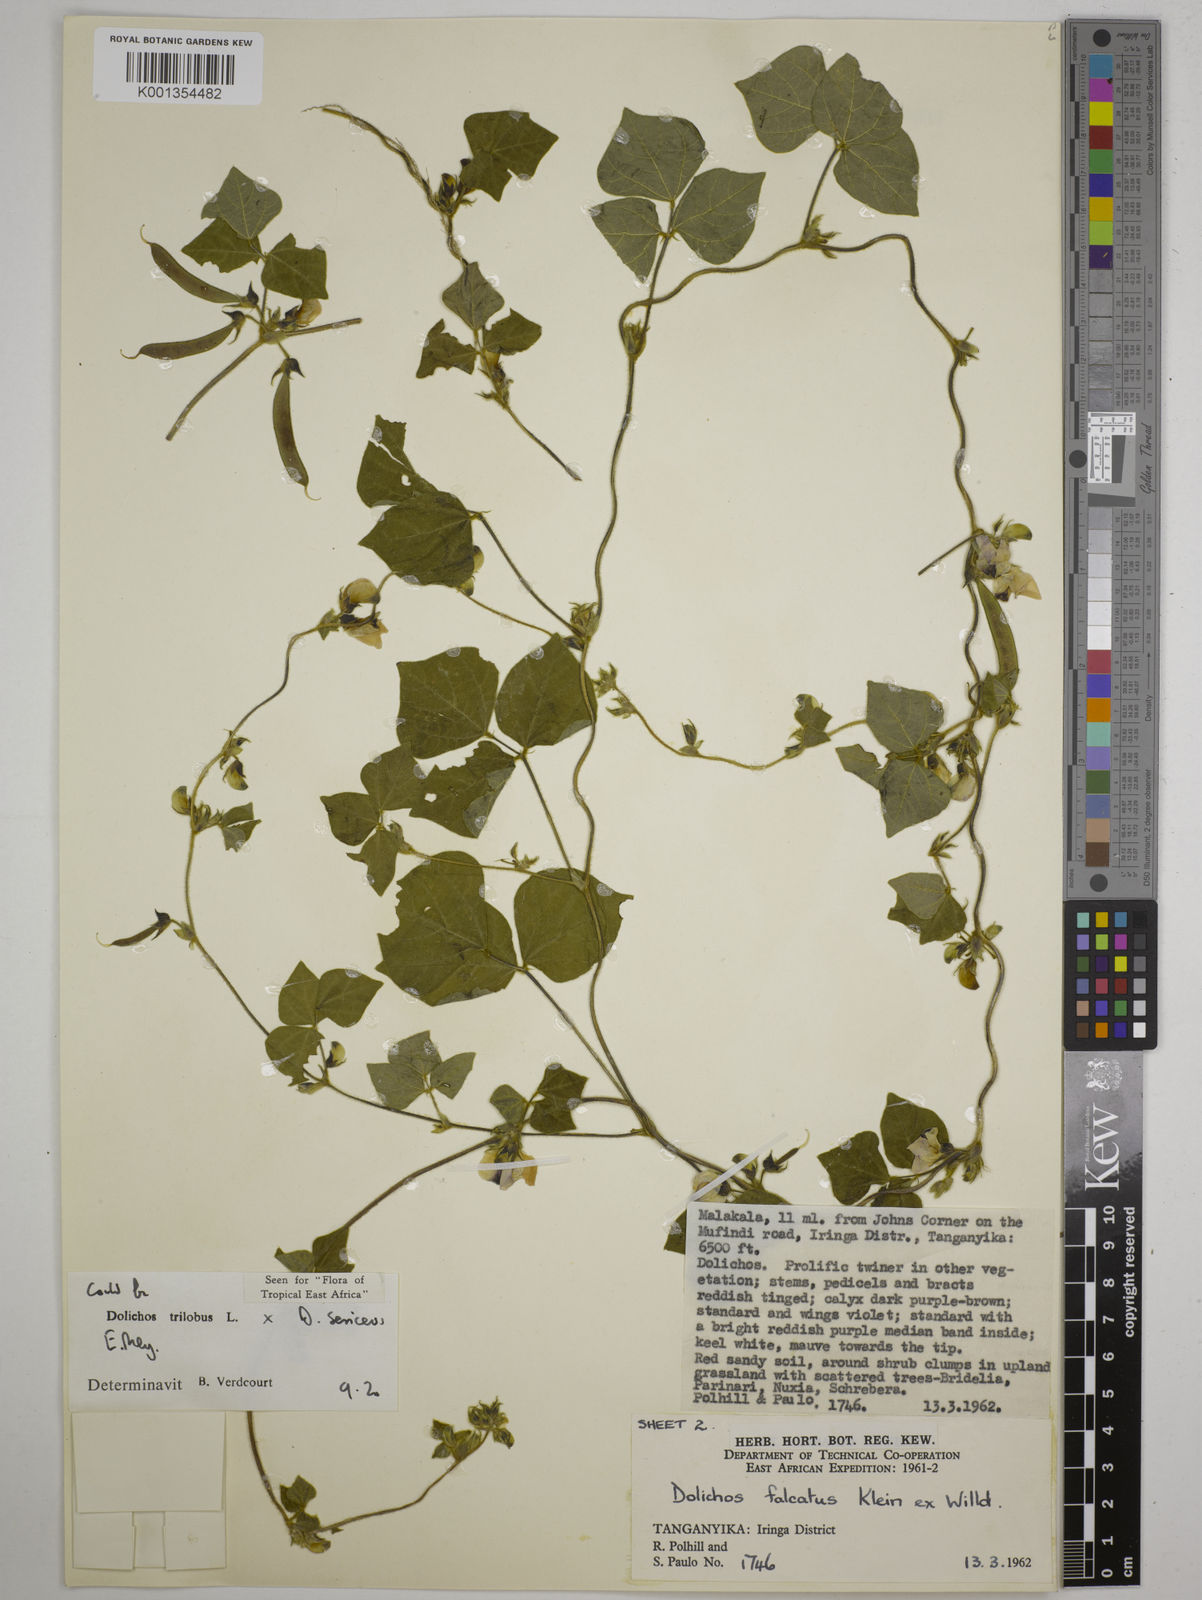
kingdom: Plantae
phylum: Tracheophyta
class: Magnoliopsida
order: Fabales
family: Fabaceae
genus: Dolichos
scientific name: Dolichos
